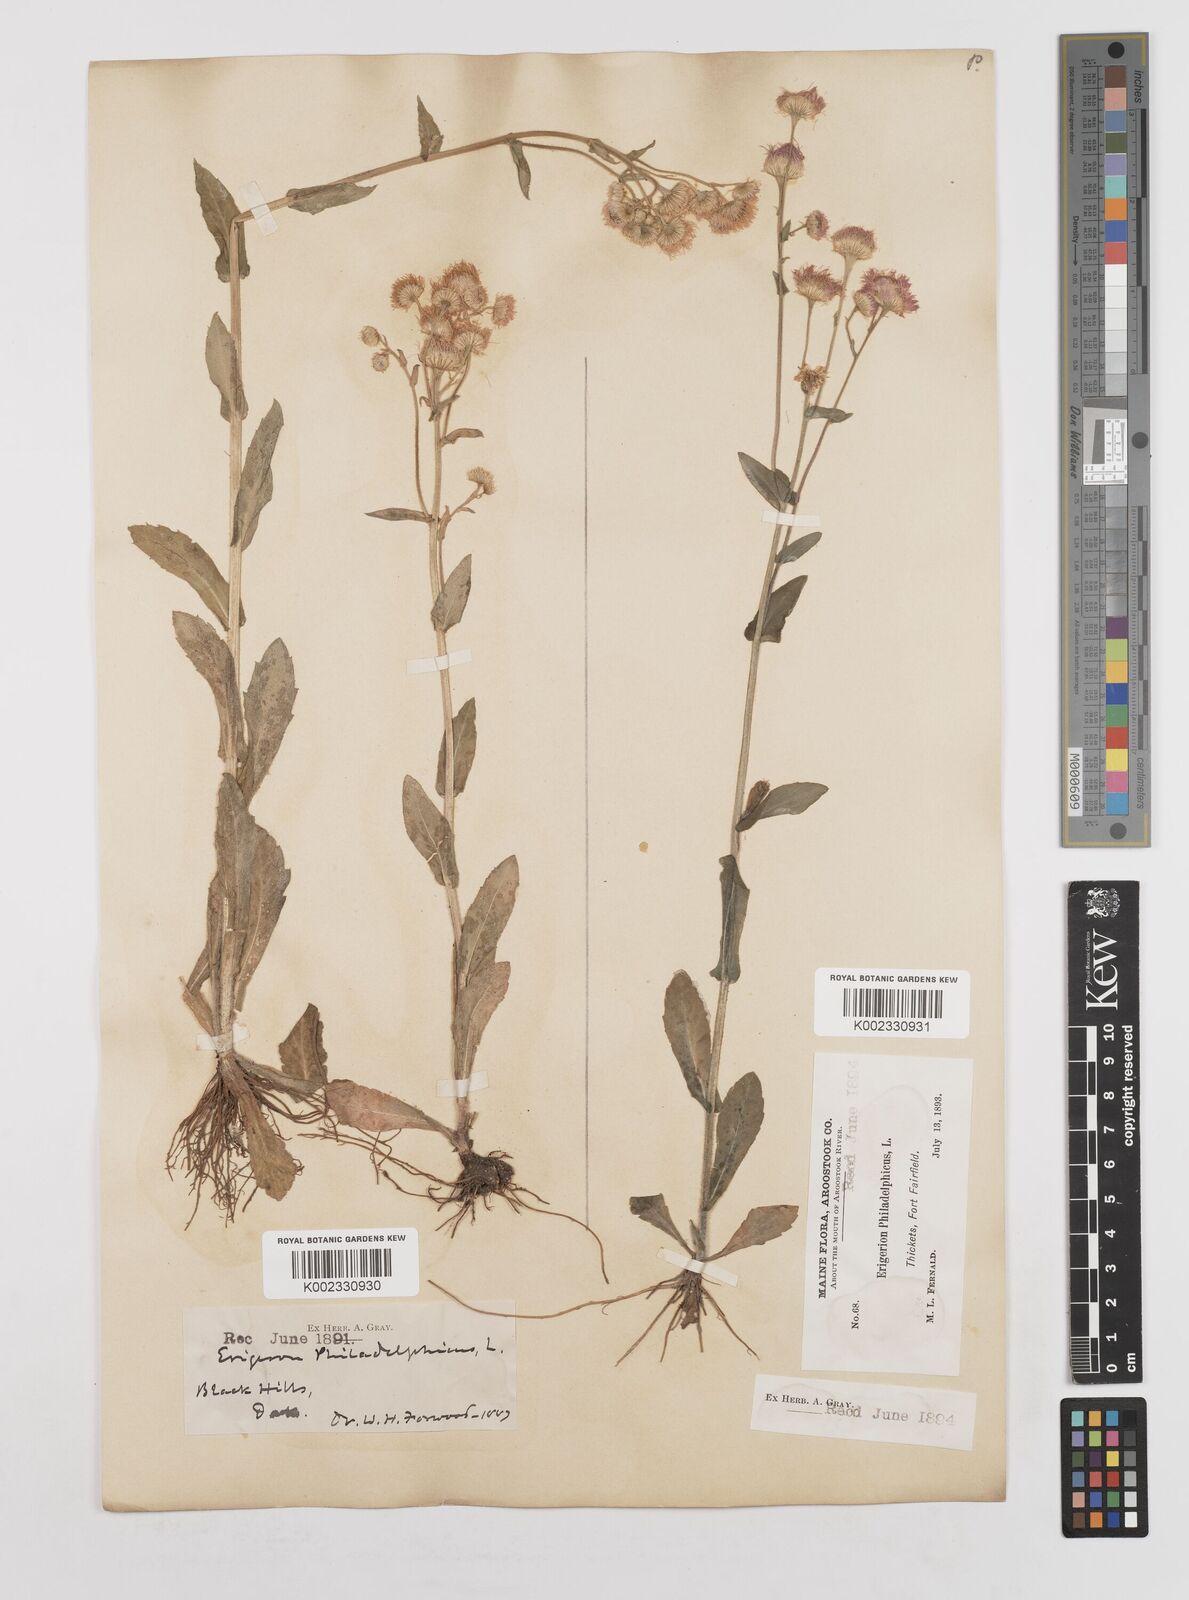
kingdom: Plantae
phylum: Tracheophyta
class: Magnoliopsida
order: Asterales
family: Asteraceae
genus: Erigeron
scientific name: Erigeron philadelphicus
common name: Robin's-plantain
